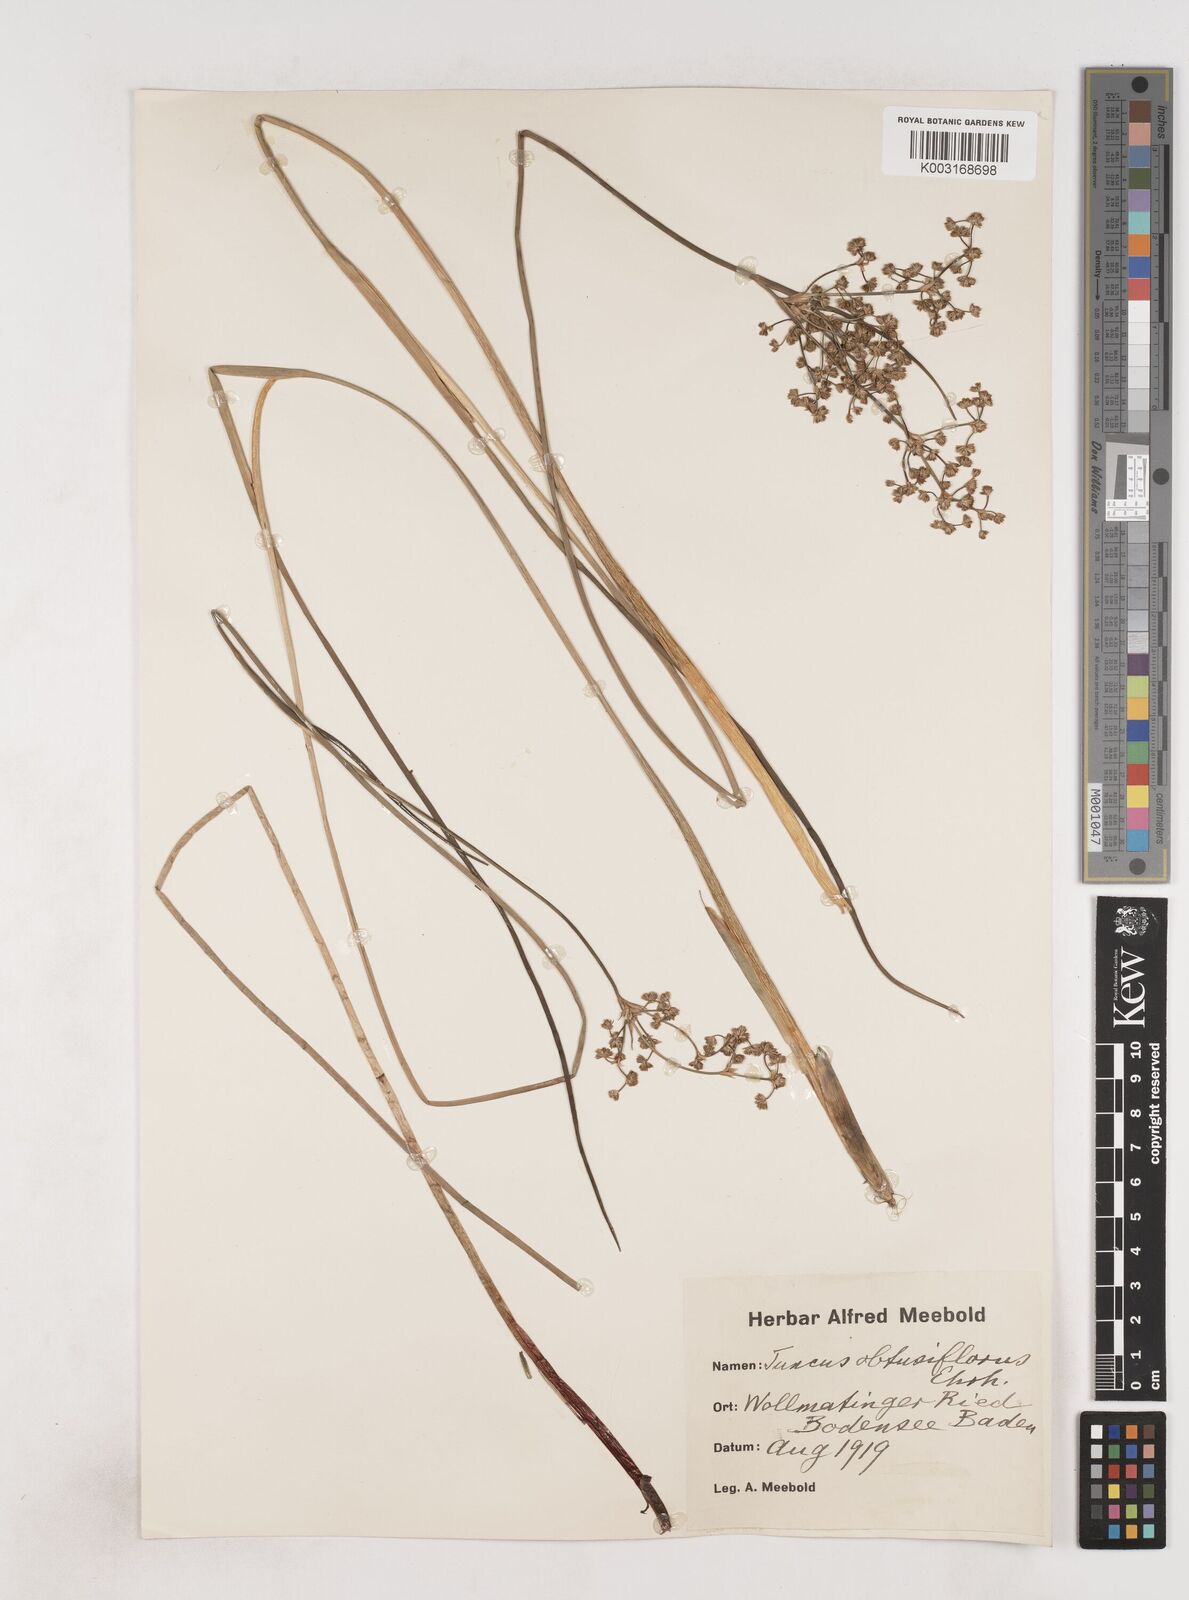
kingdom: Plantae
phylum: Tracheophyta
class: Liliopsida
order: Poales
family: Juncaceae
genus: Juncus
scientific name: Juncus subnodulosus
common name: Blunt-flowered rush
